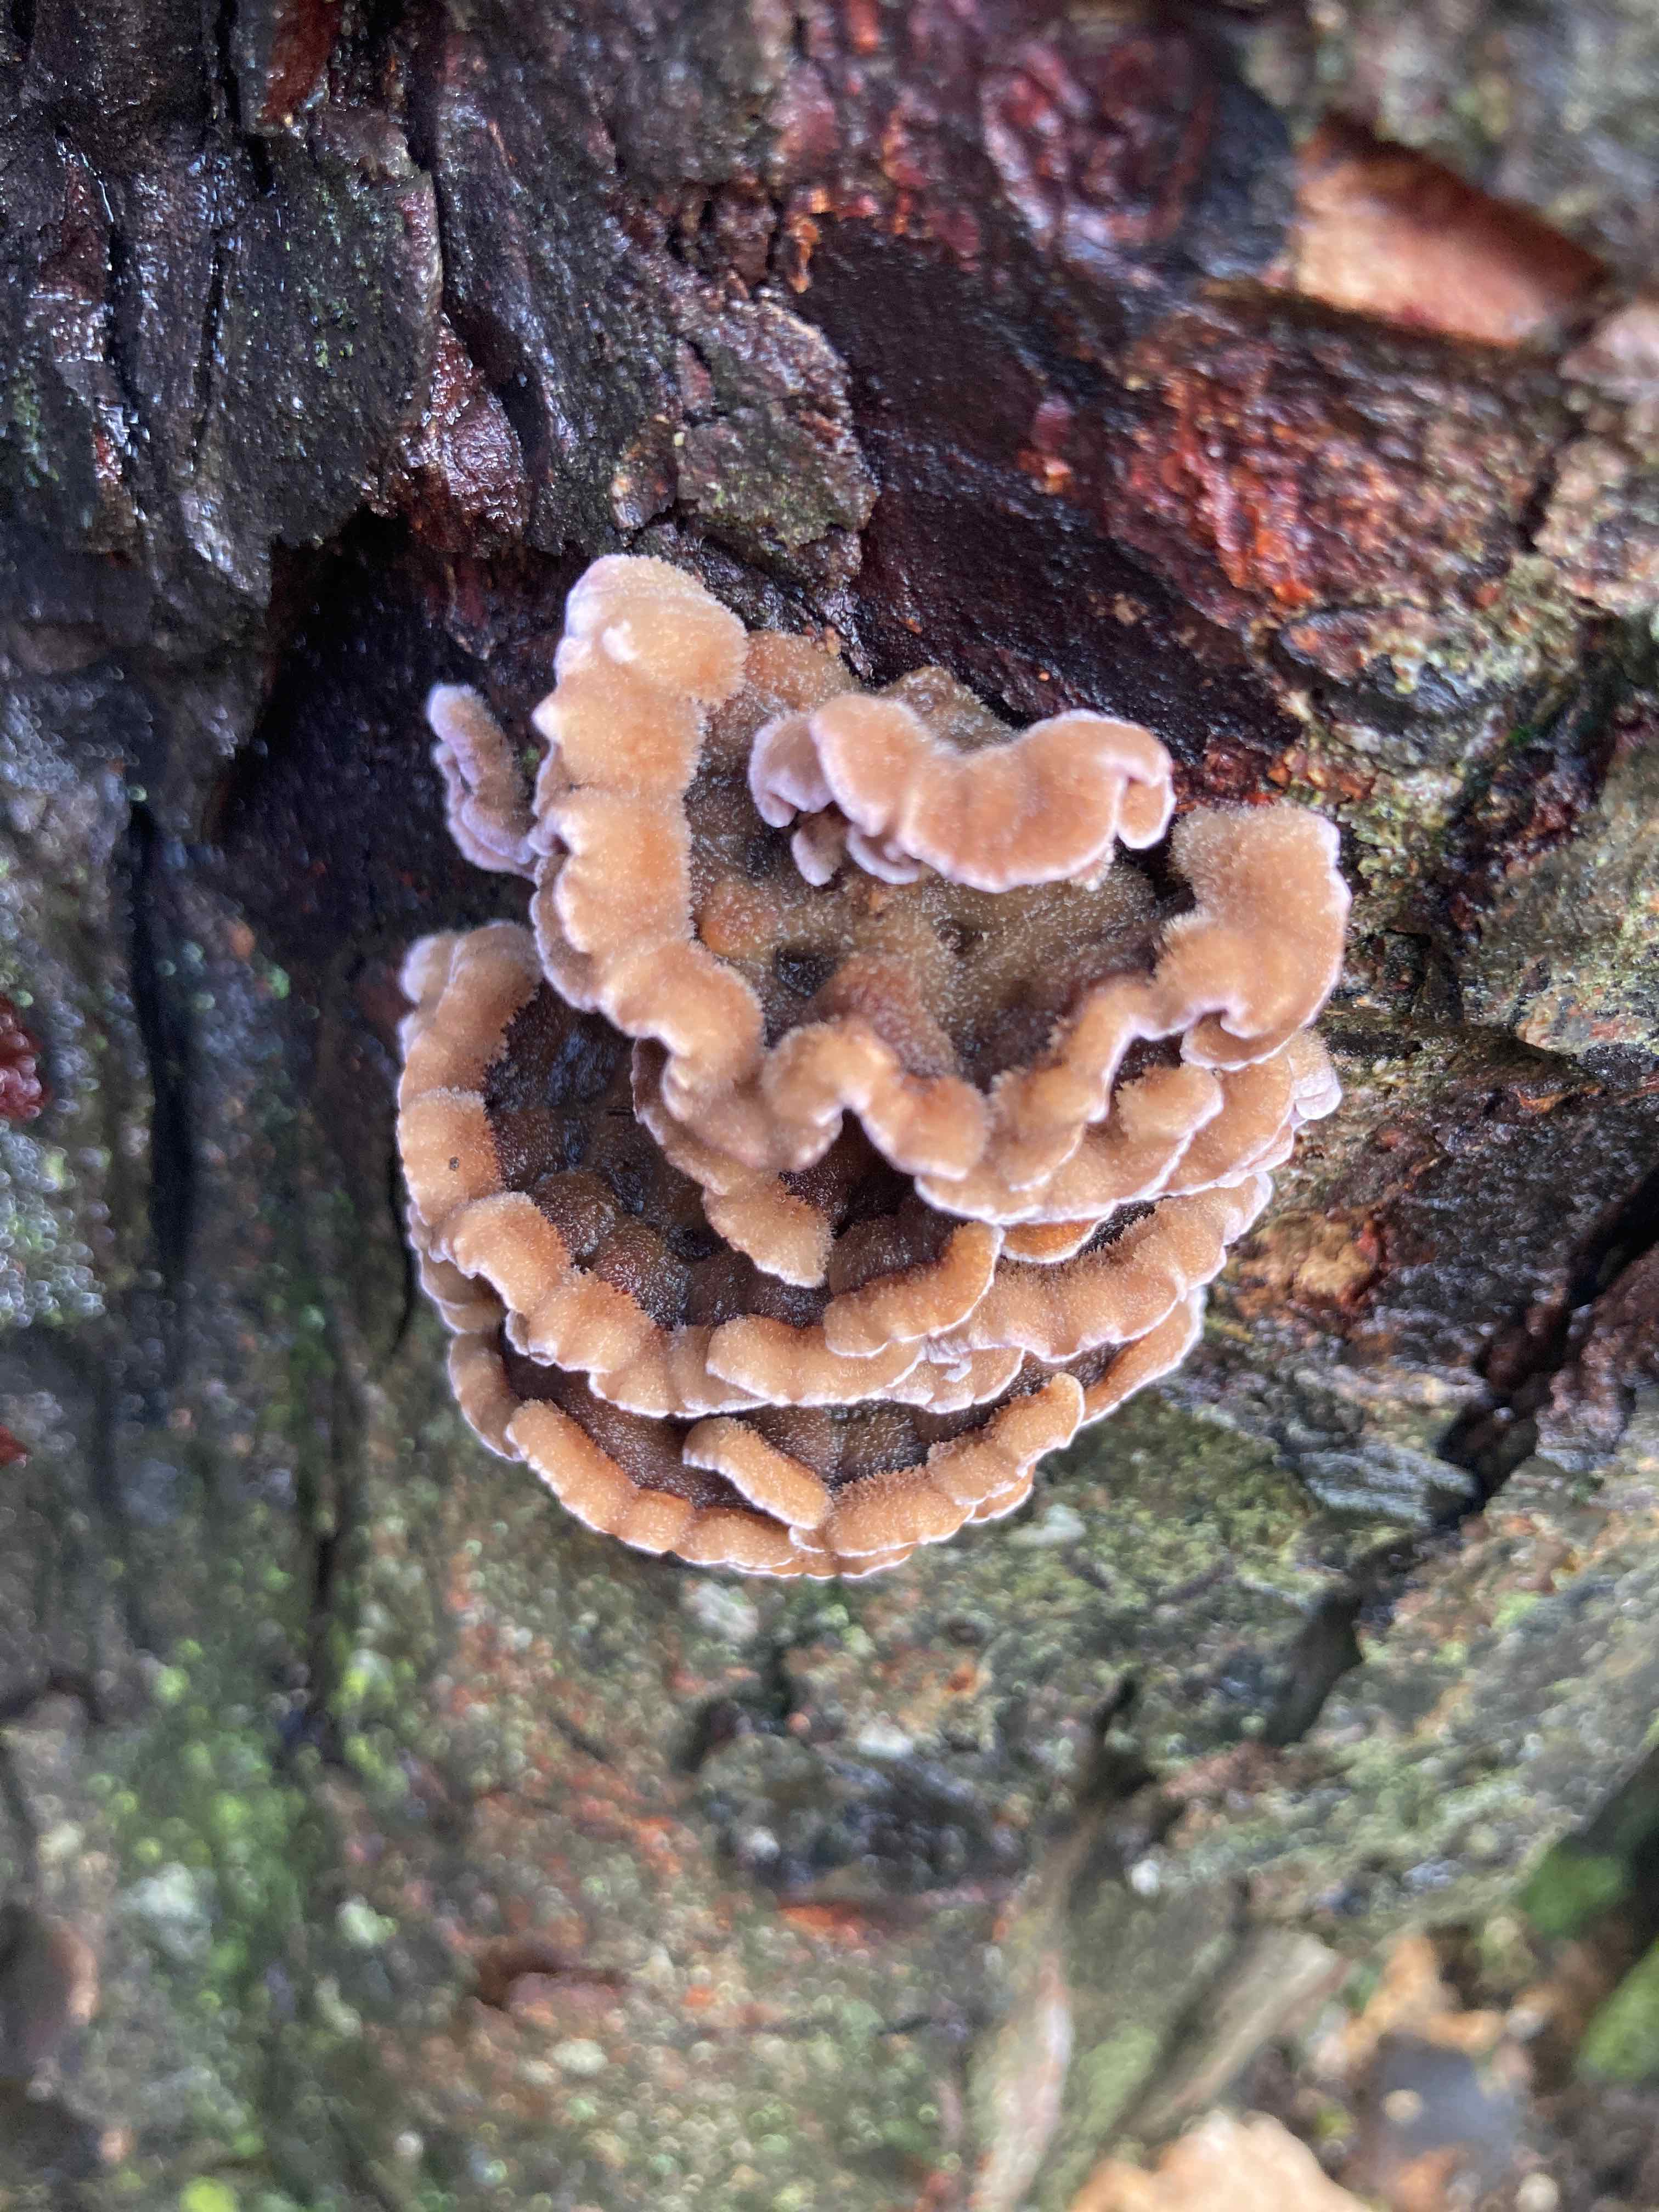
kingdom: Fungi
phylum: Basidiomycota
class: Agaricomycetes
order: Agaricales
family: Cyphellaceae
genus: Chondrostereum
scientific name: Chondrostereum purpureum
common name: purpurlædersvamp
